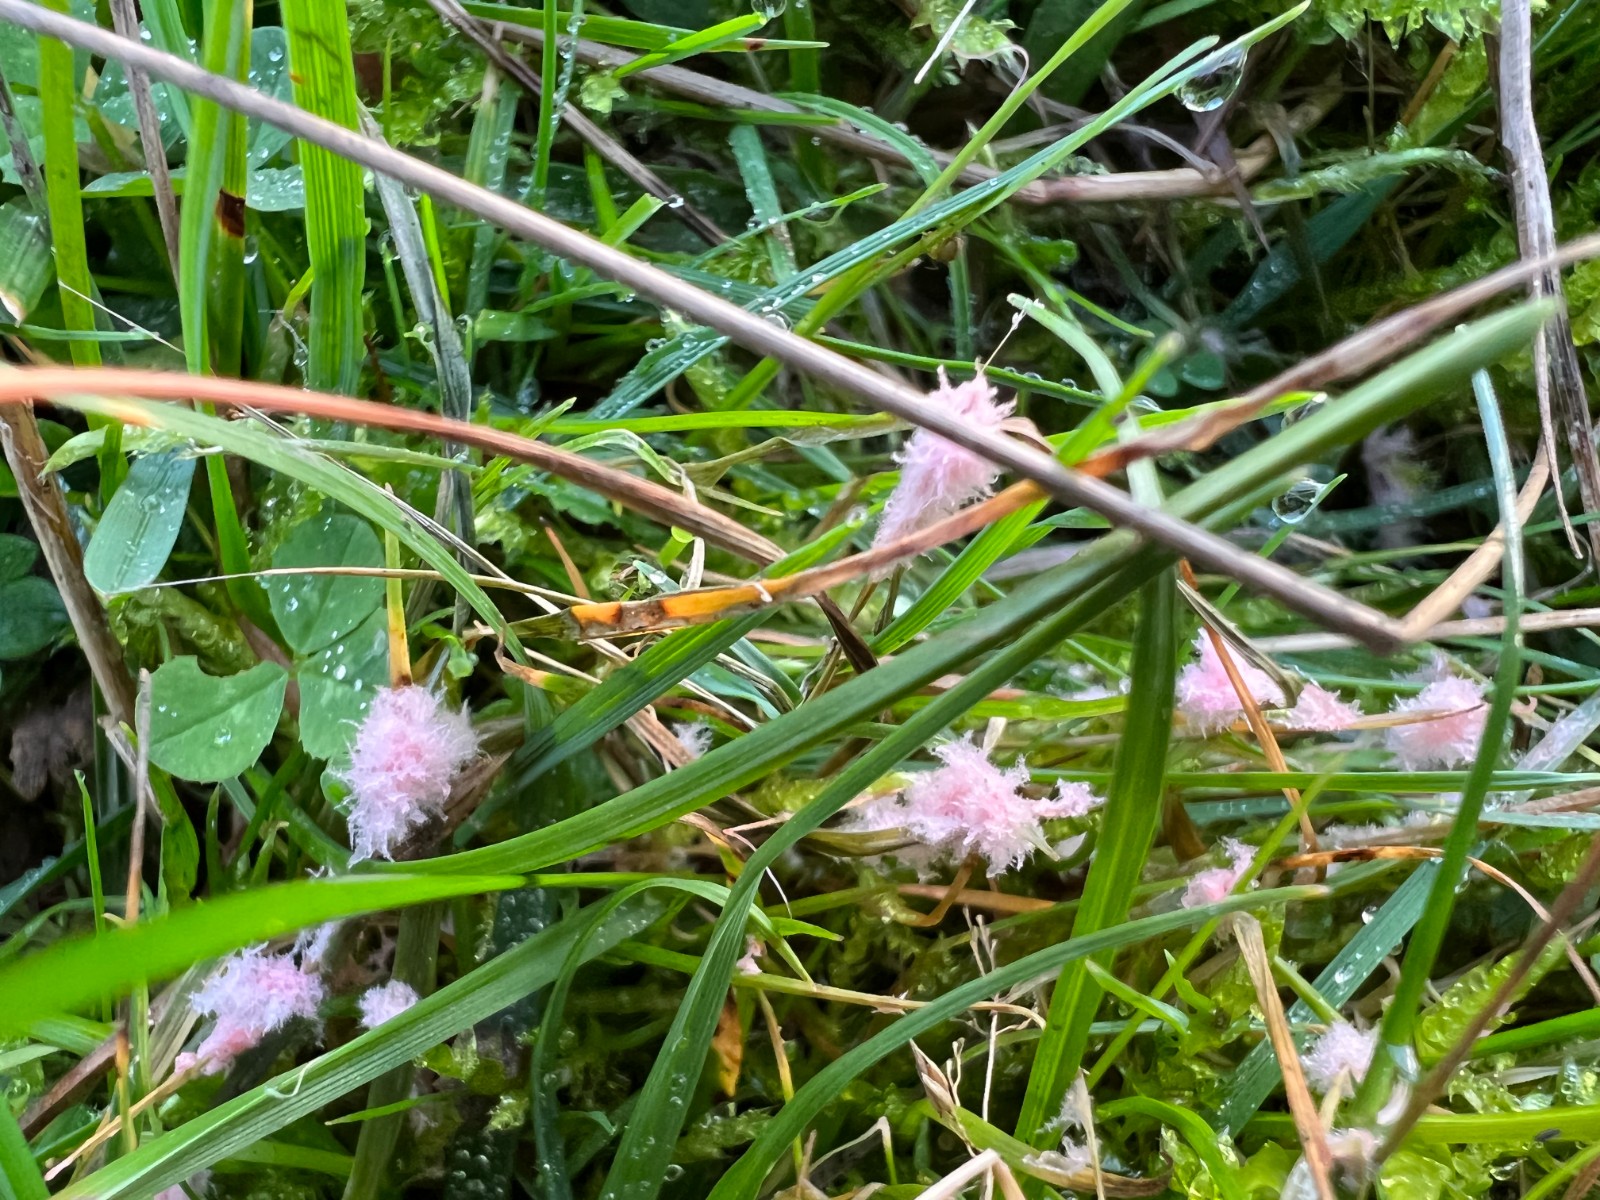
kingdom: Fungi
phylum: Basidiomycota
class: Agaricomycetes
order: Corticiales
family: Corticiaceae
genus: Laetisaria
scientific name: Laetisaria fuciformis
